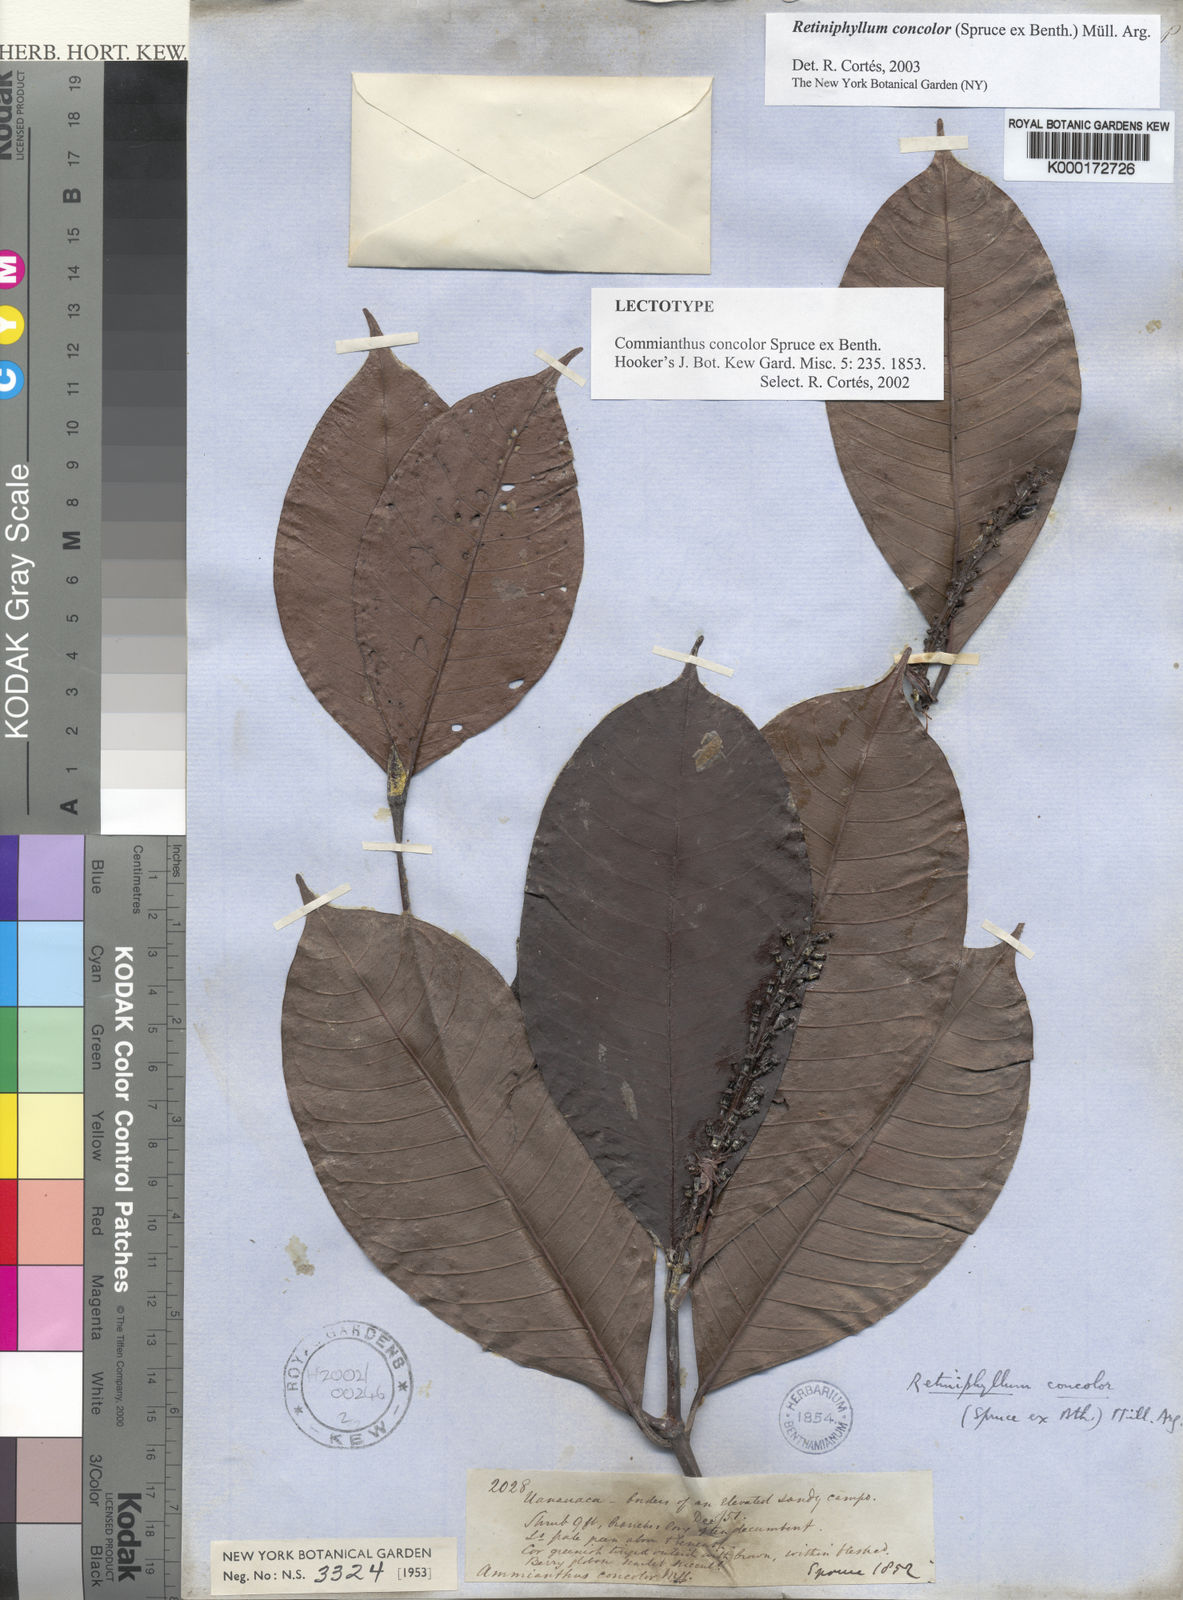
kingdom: Plantae
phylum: Tracheophyta
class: Magnoliopsida
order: Gentianales
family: Rubiaceae
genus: Retiniphyllum
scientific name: Retiniphyllum
